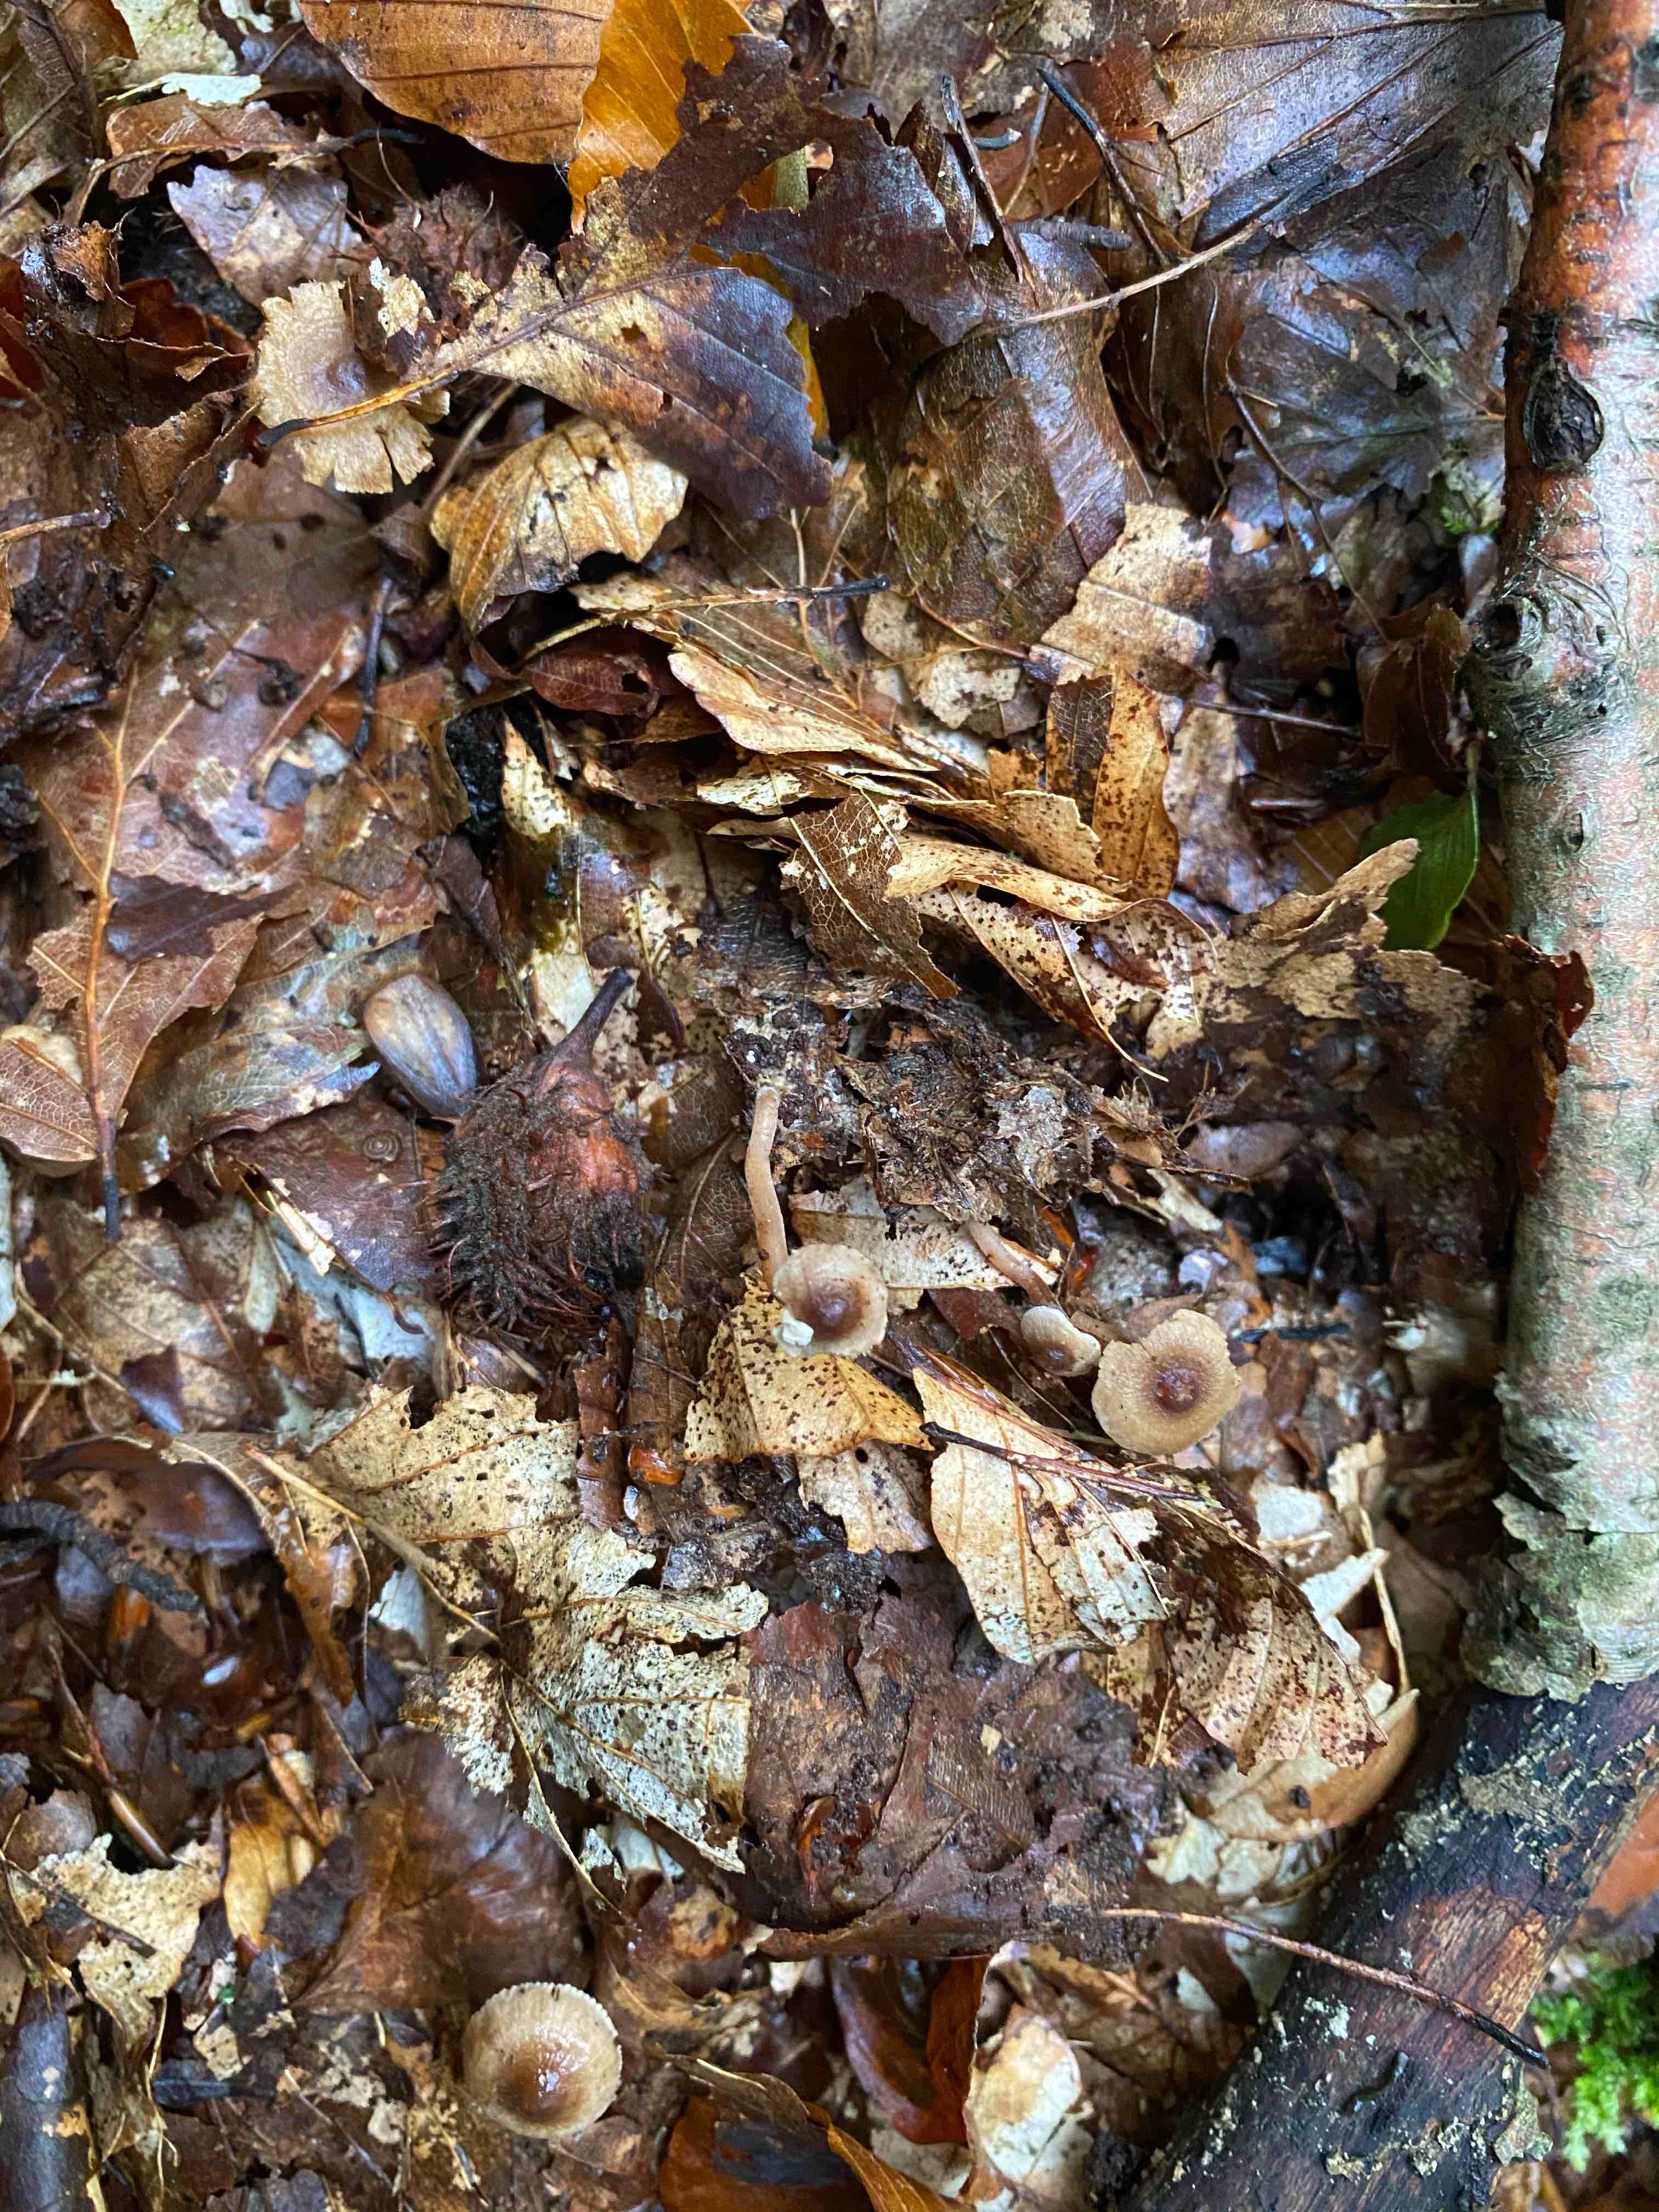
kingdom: Fungi
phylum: Basidiomycota
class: Agaricomycetes
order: Agaricales
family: Inocybaceae
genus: Inocybe
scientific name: Inocybe petiginosa
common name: liden trævlhat
